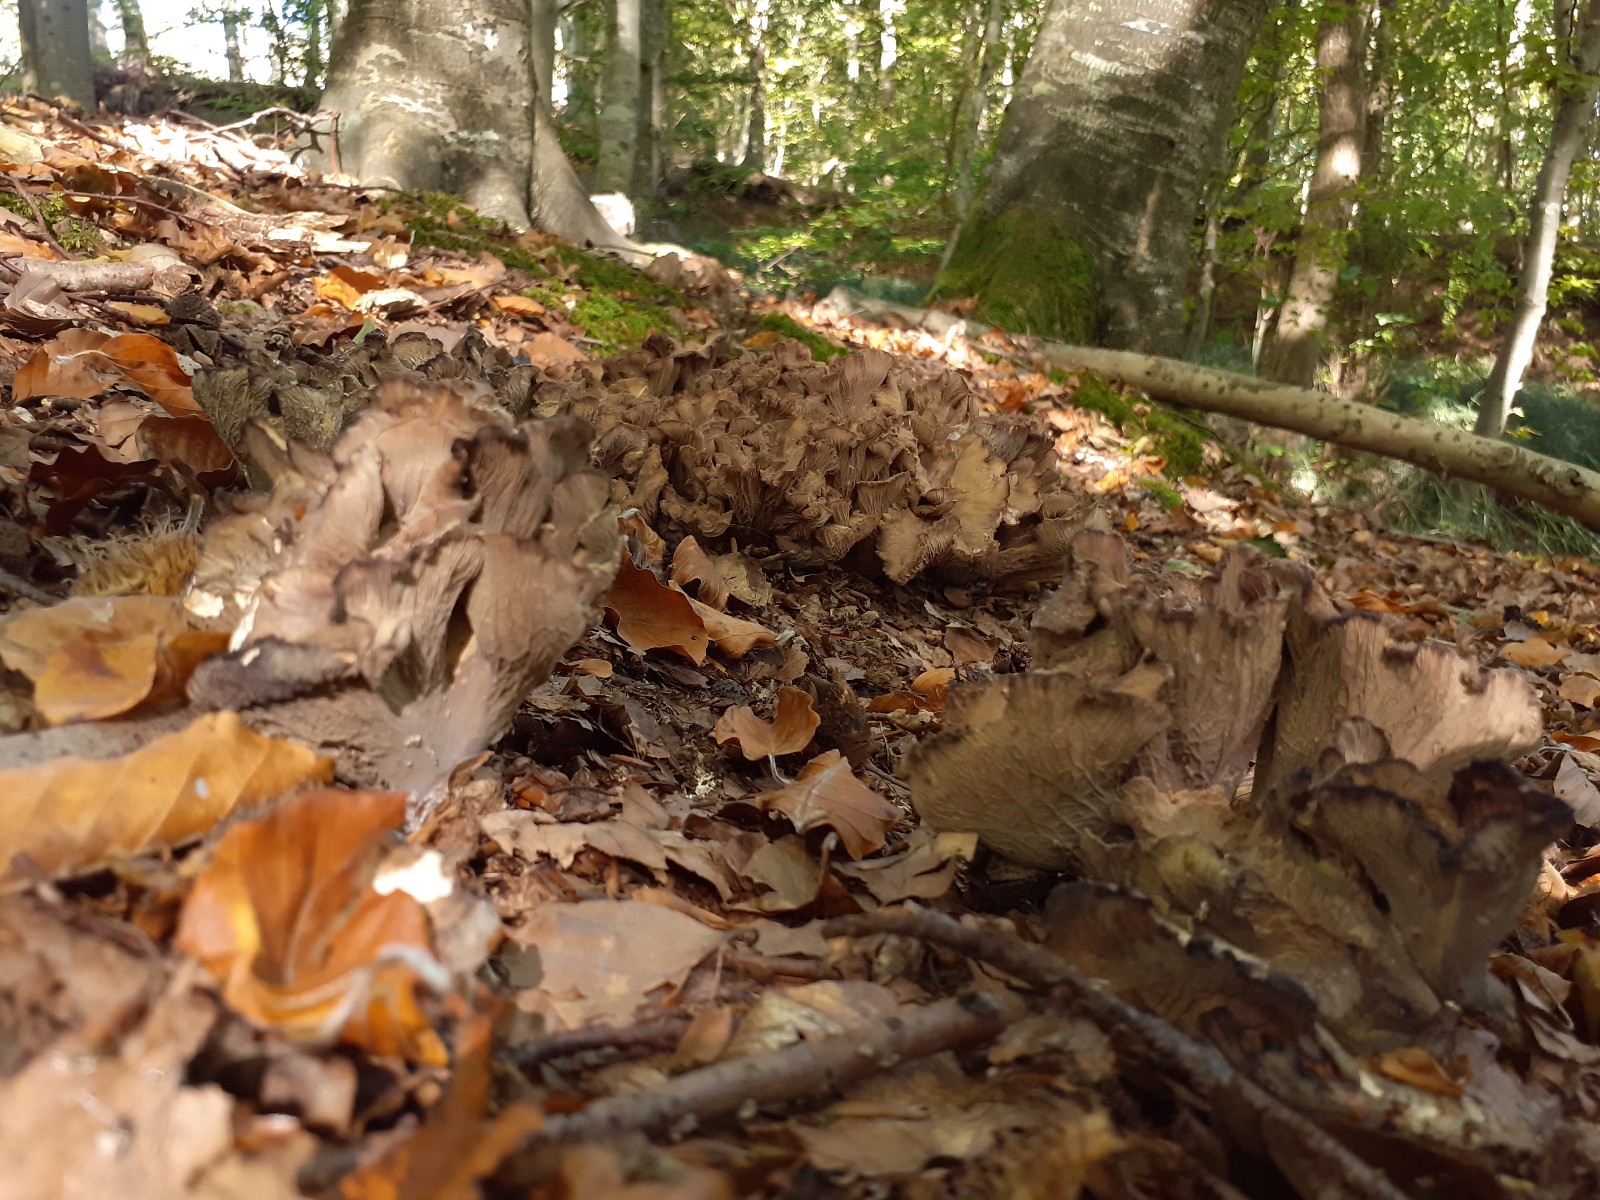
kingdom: Fungi
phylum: Basidiomycota
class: Agaricomycetes
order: Gomphales
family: Gomphaceae
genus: Gomphus
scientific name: Gomphus clavatus
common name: køllekantarel
